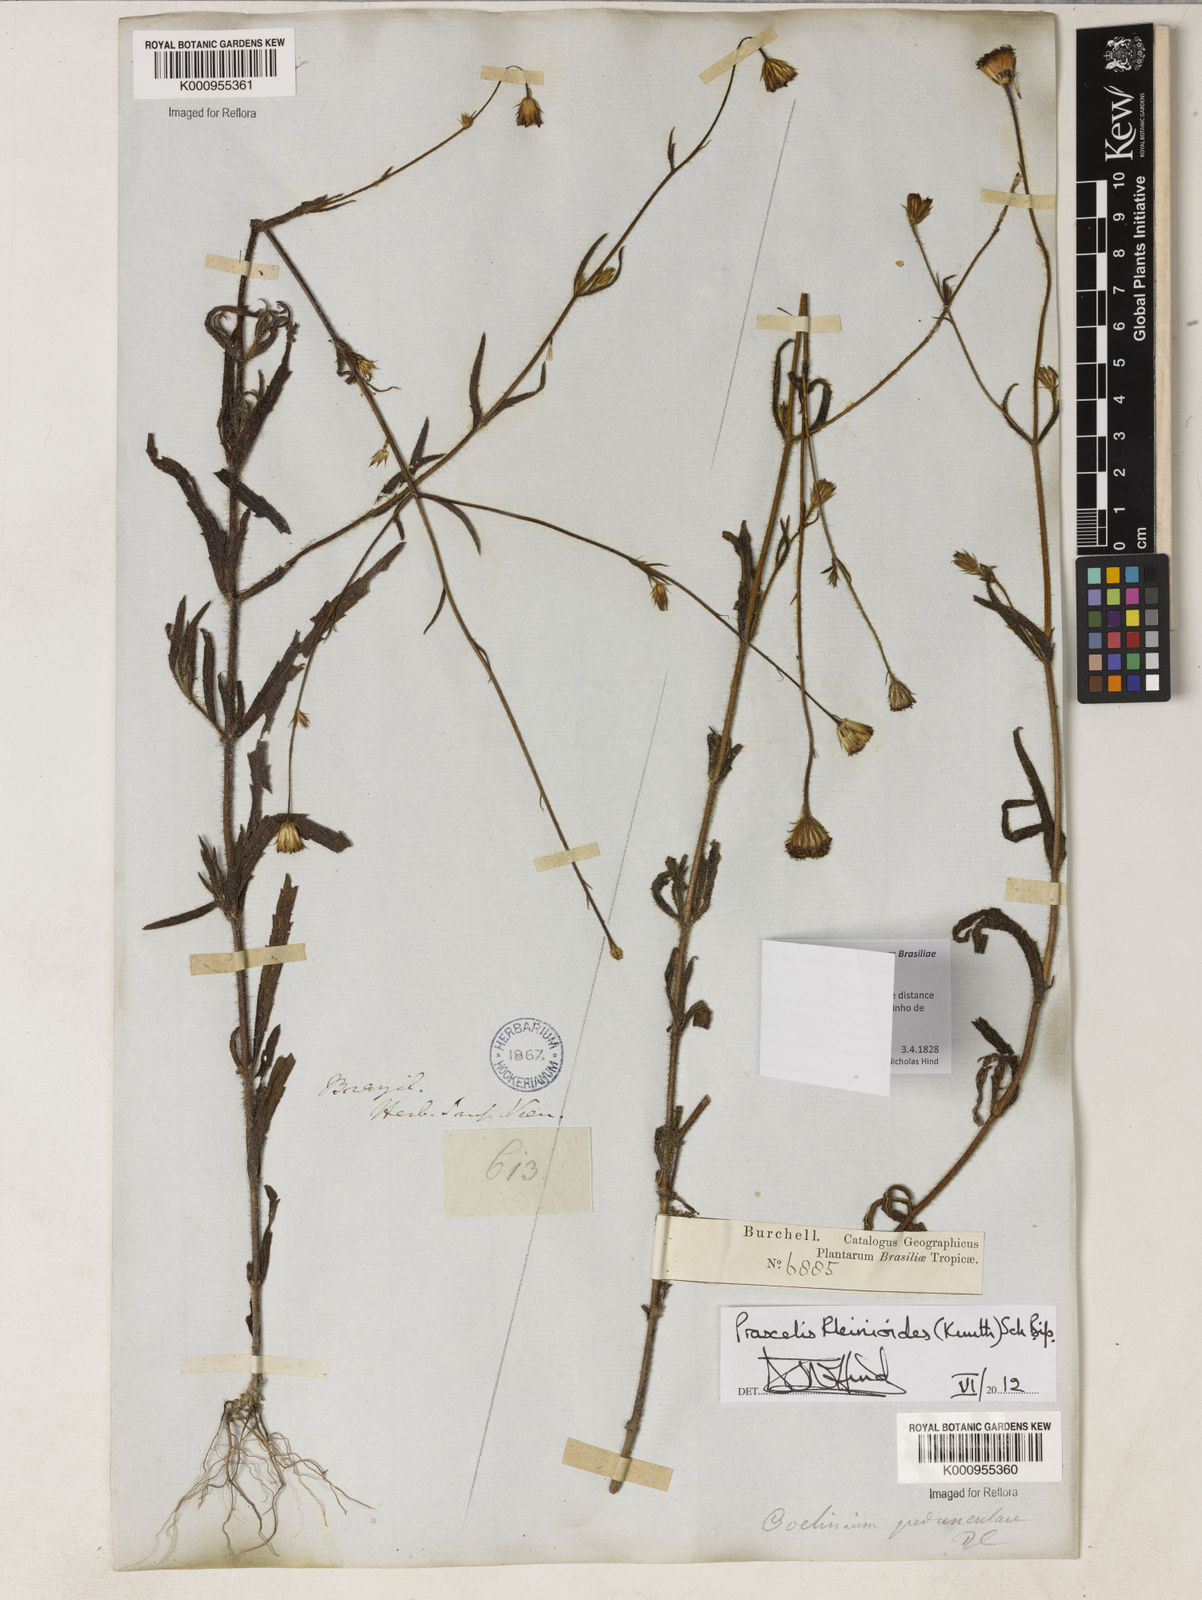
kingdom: Plantae
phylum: Tracheophyta
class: Magnoliopsida
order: Asterales
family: Asteraceae
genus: Praxelis
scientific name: Praxelis kleinioides
